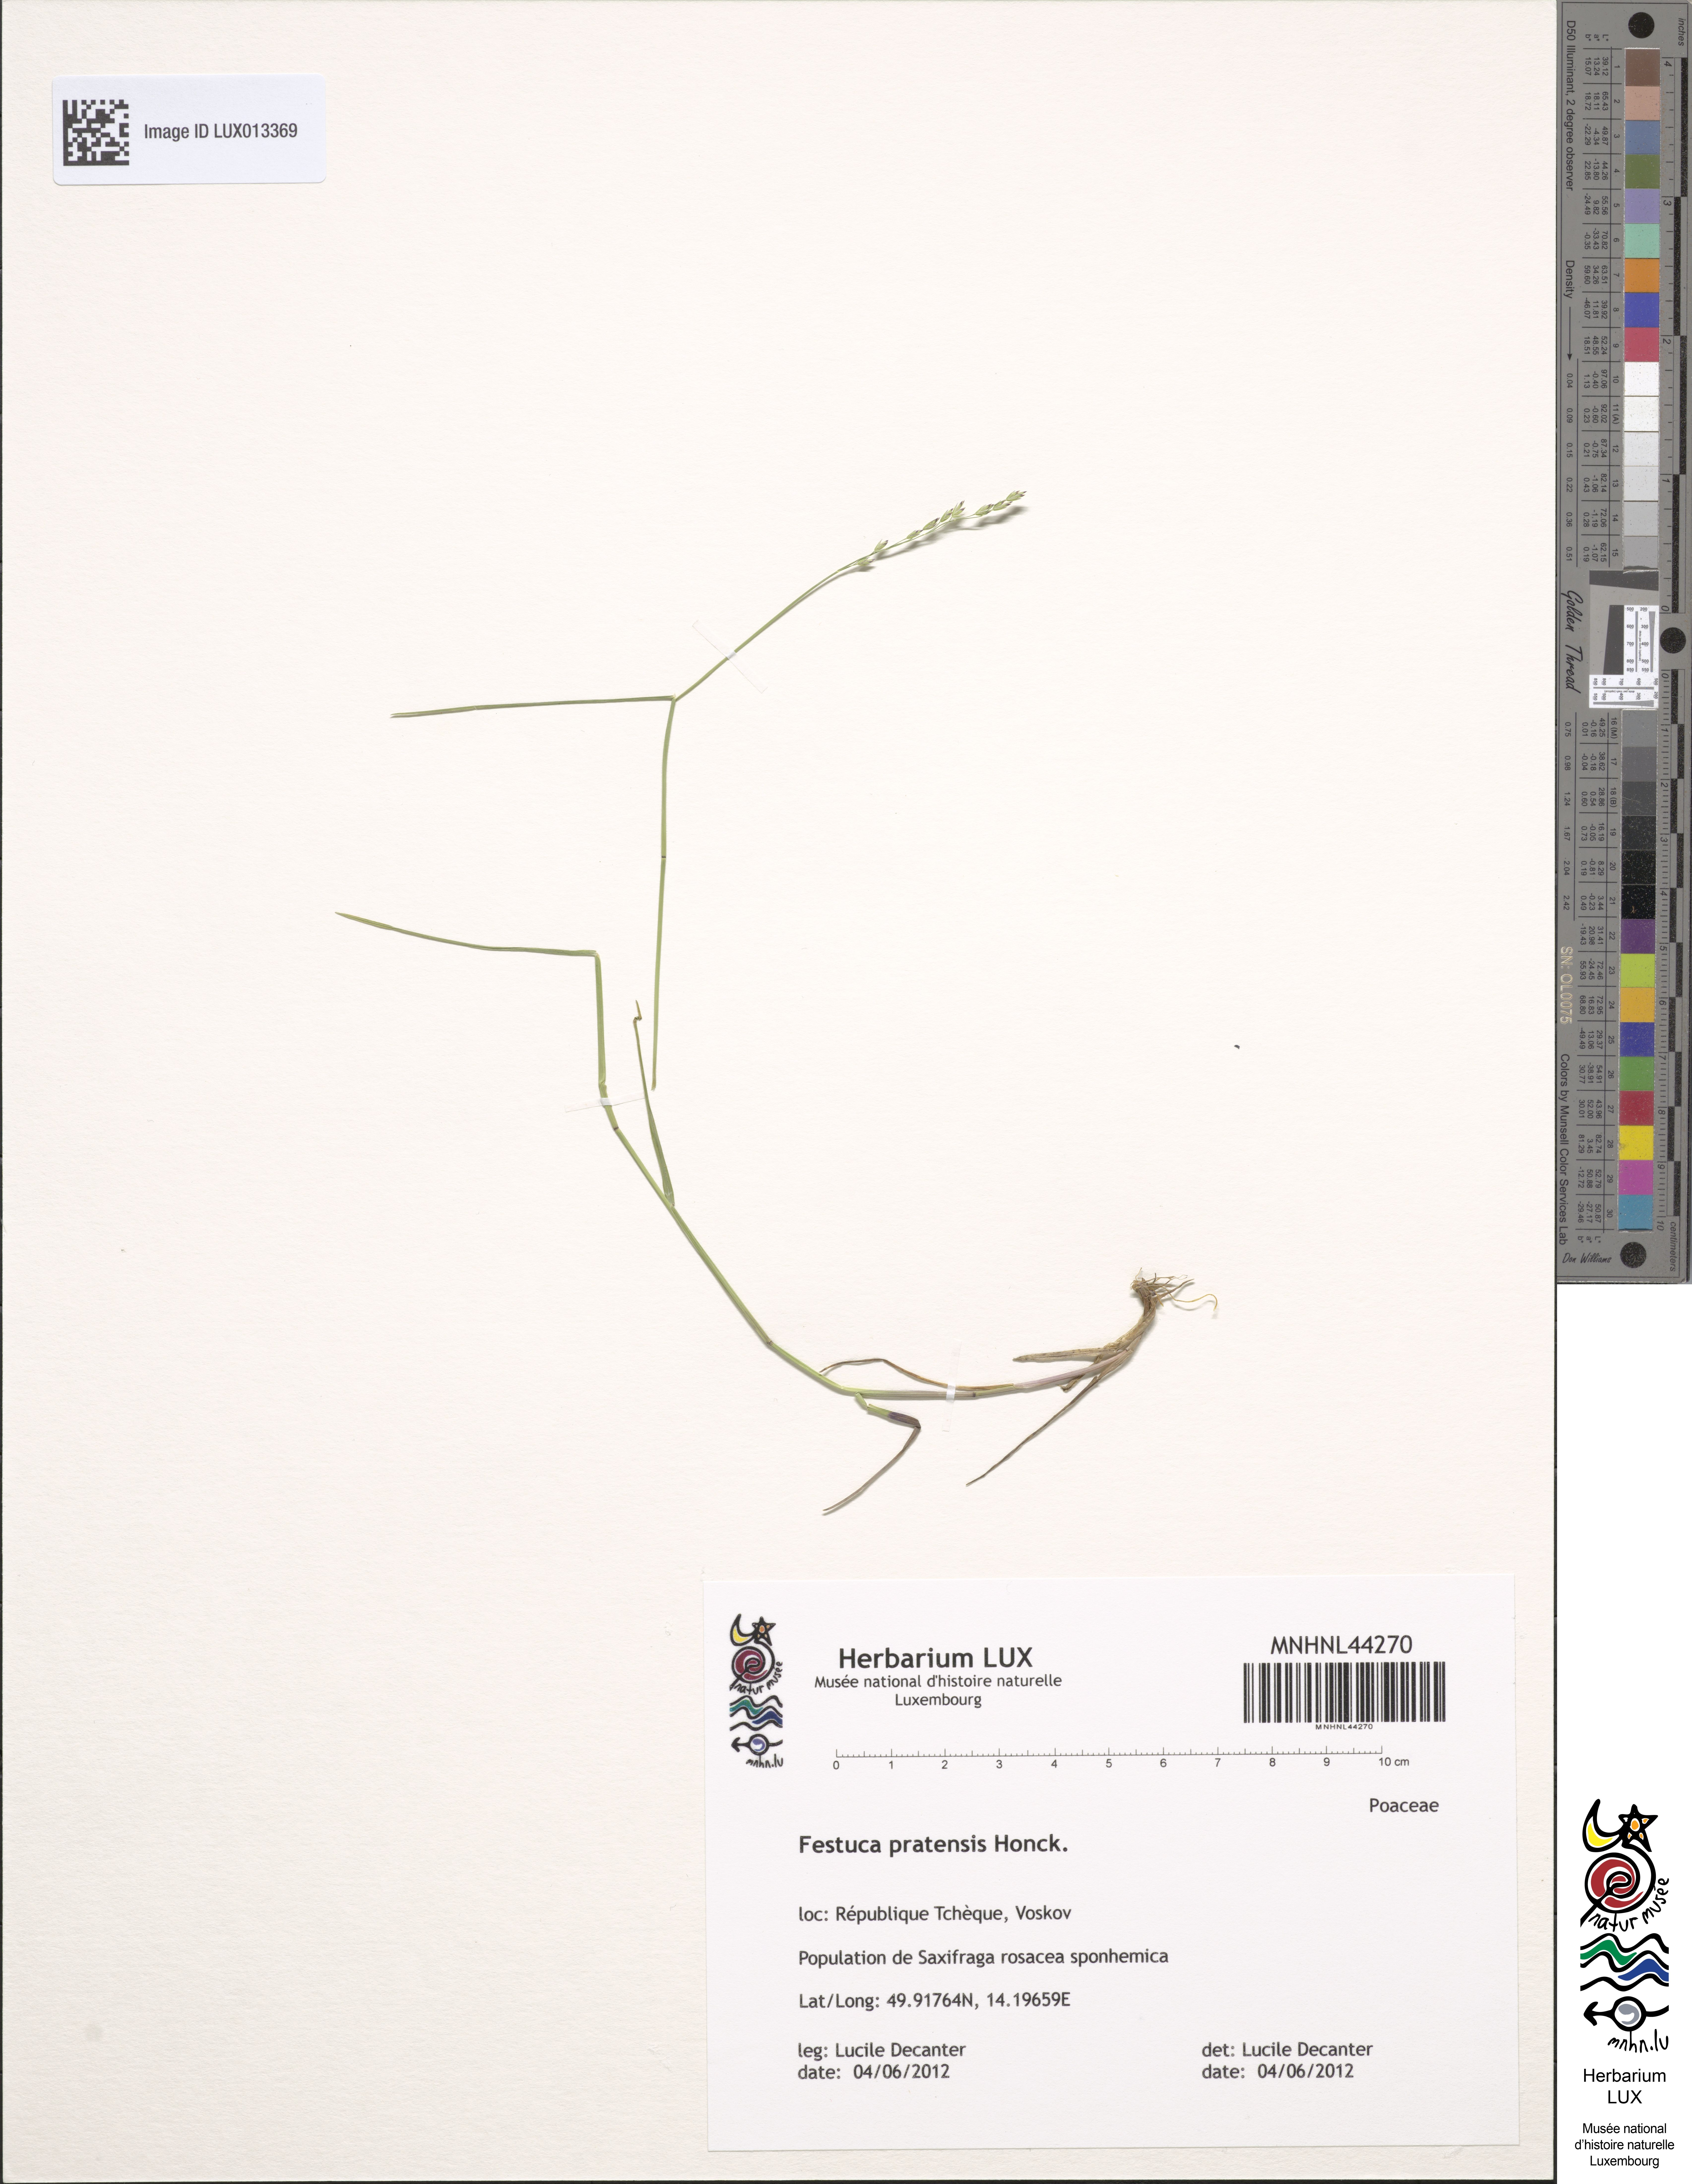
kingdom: Plantae
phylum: Tracheophyta
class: Liliopsida
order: Poales
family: Poaceae
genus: Lolium
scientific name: Lolium pratense
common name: Dover grass
